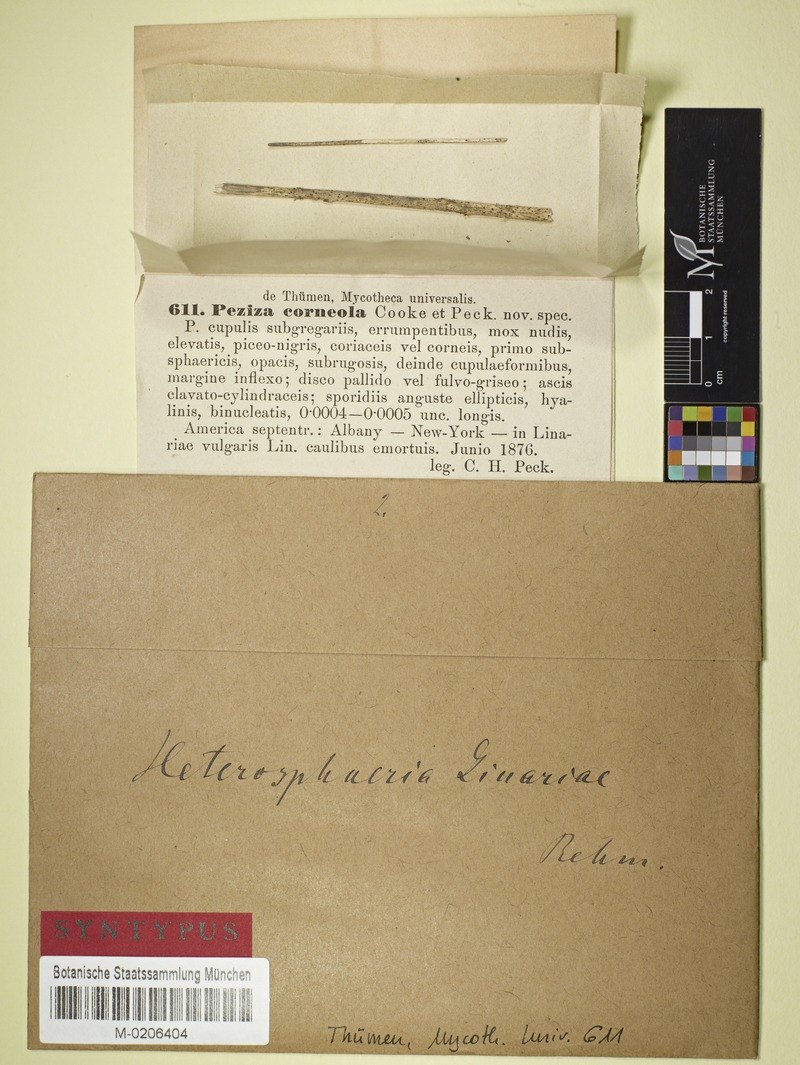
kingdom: Fungi
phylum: Ascomycota
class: Leotiomycetes
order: Helotiales
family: Heterosphaeriaceae
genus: Heterosphaeria
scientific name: Heterosphaeria linariae
